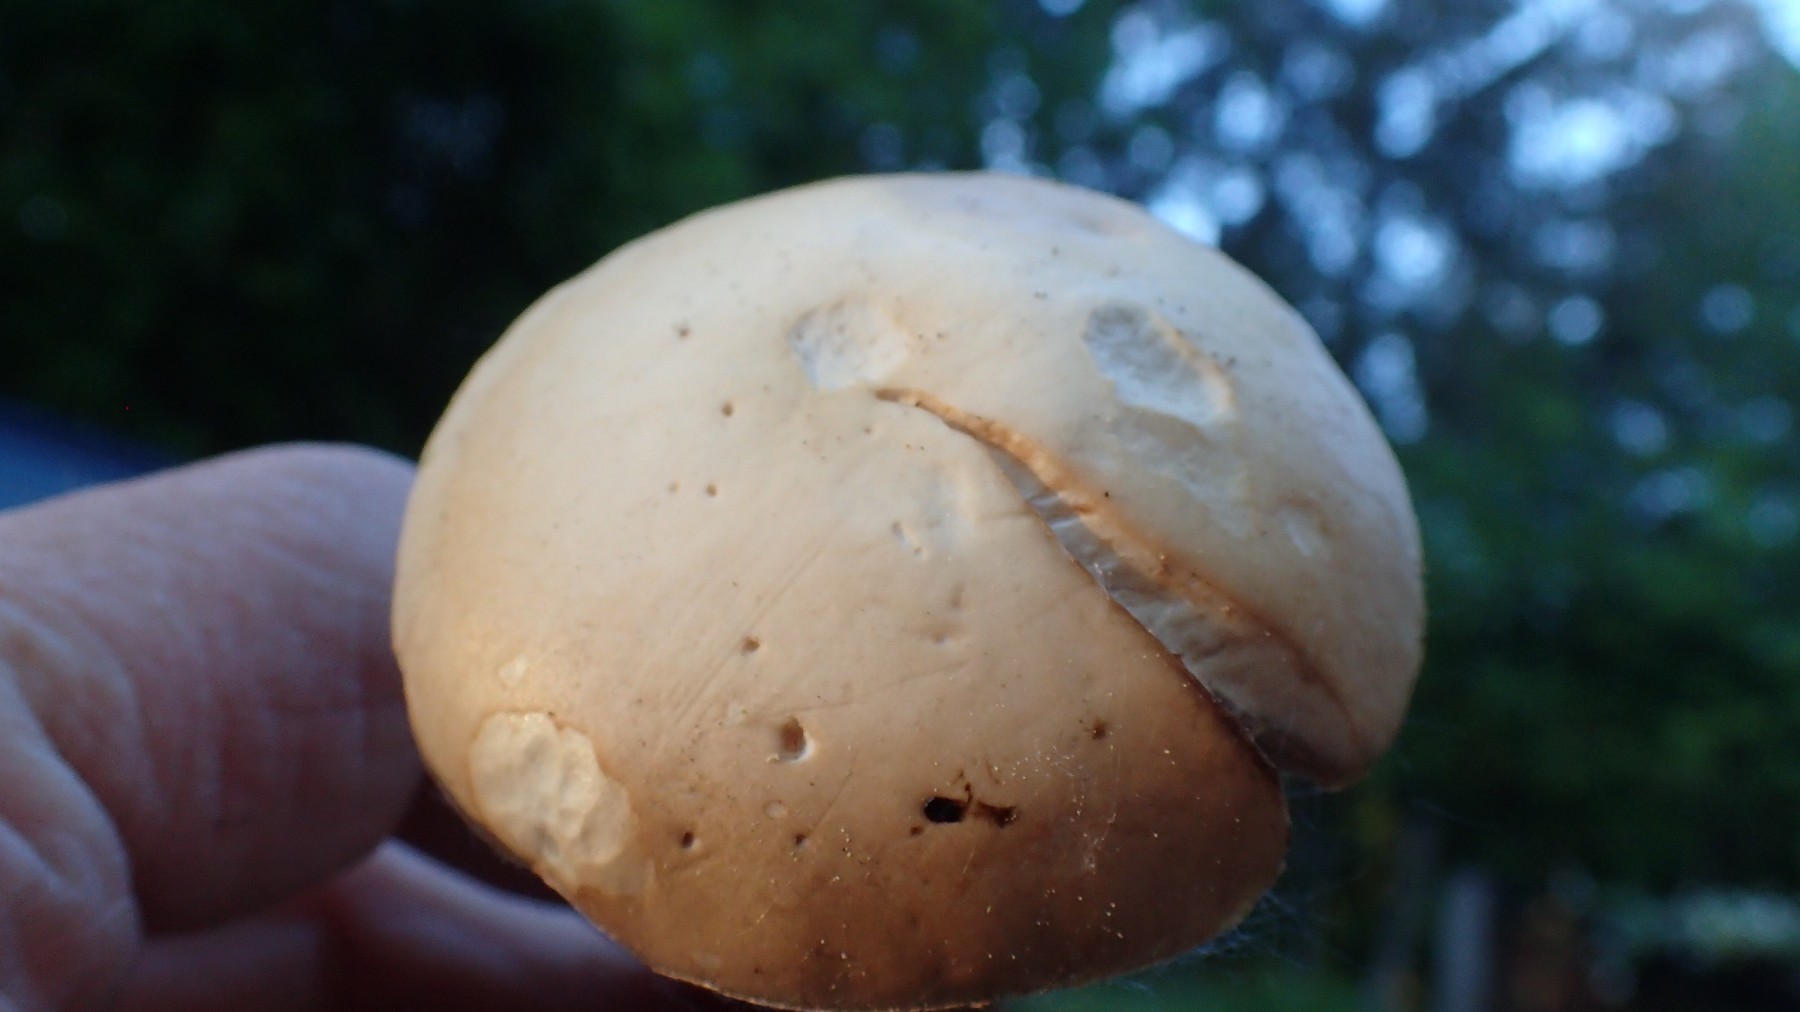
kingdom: Fungi
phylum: Basidiomycota
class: Agaricomycetes
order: Agaricales
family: Strophariaceae
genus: Agrocybe
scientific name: Agrocybe praecox
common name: tidlig agerhat
